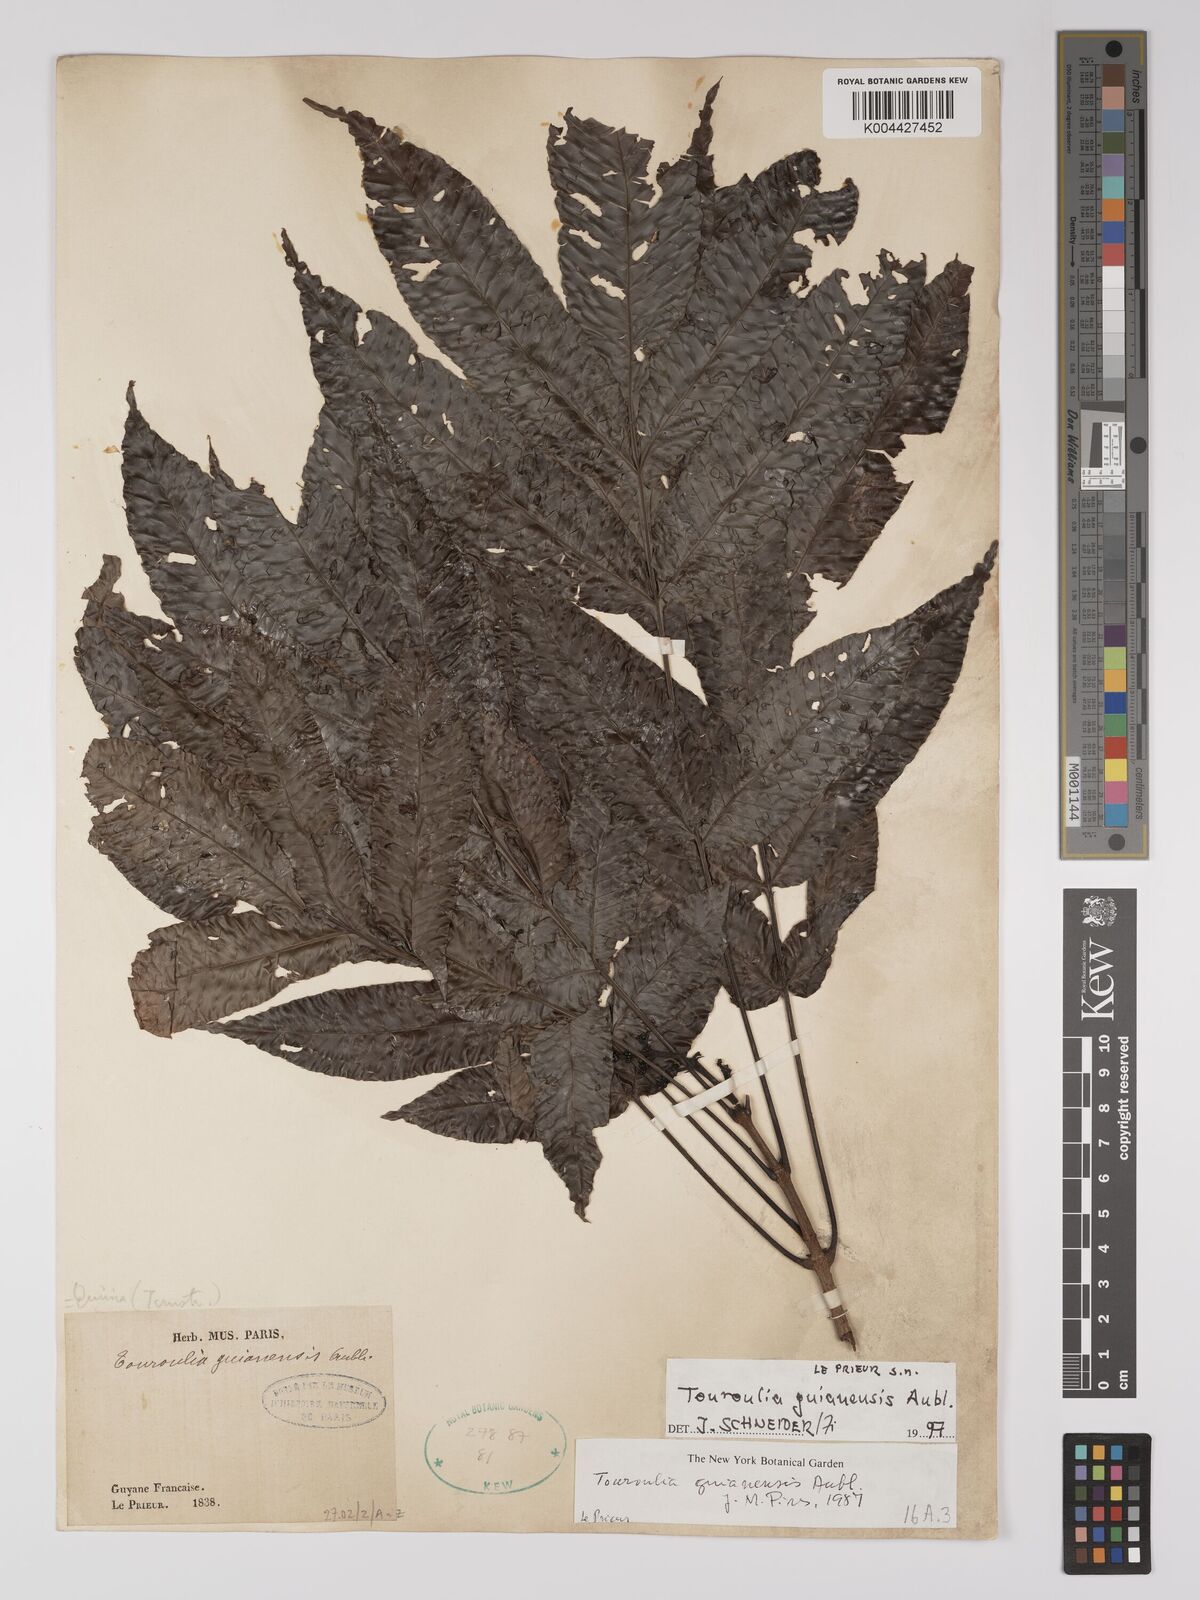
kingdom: Plantae
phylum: Tracheophyta
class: Magnoliopsida
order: Malpighiales
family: Quiinaceae
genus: Touroulia
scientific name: Touroulia guianensis
